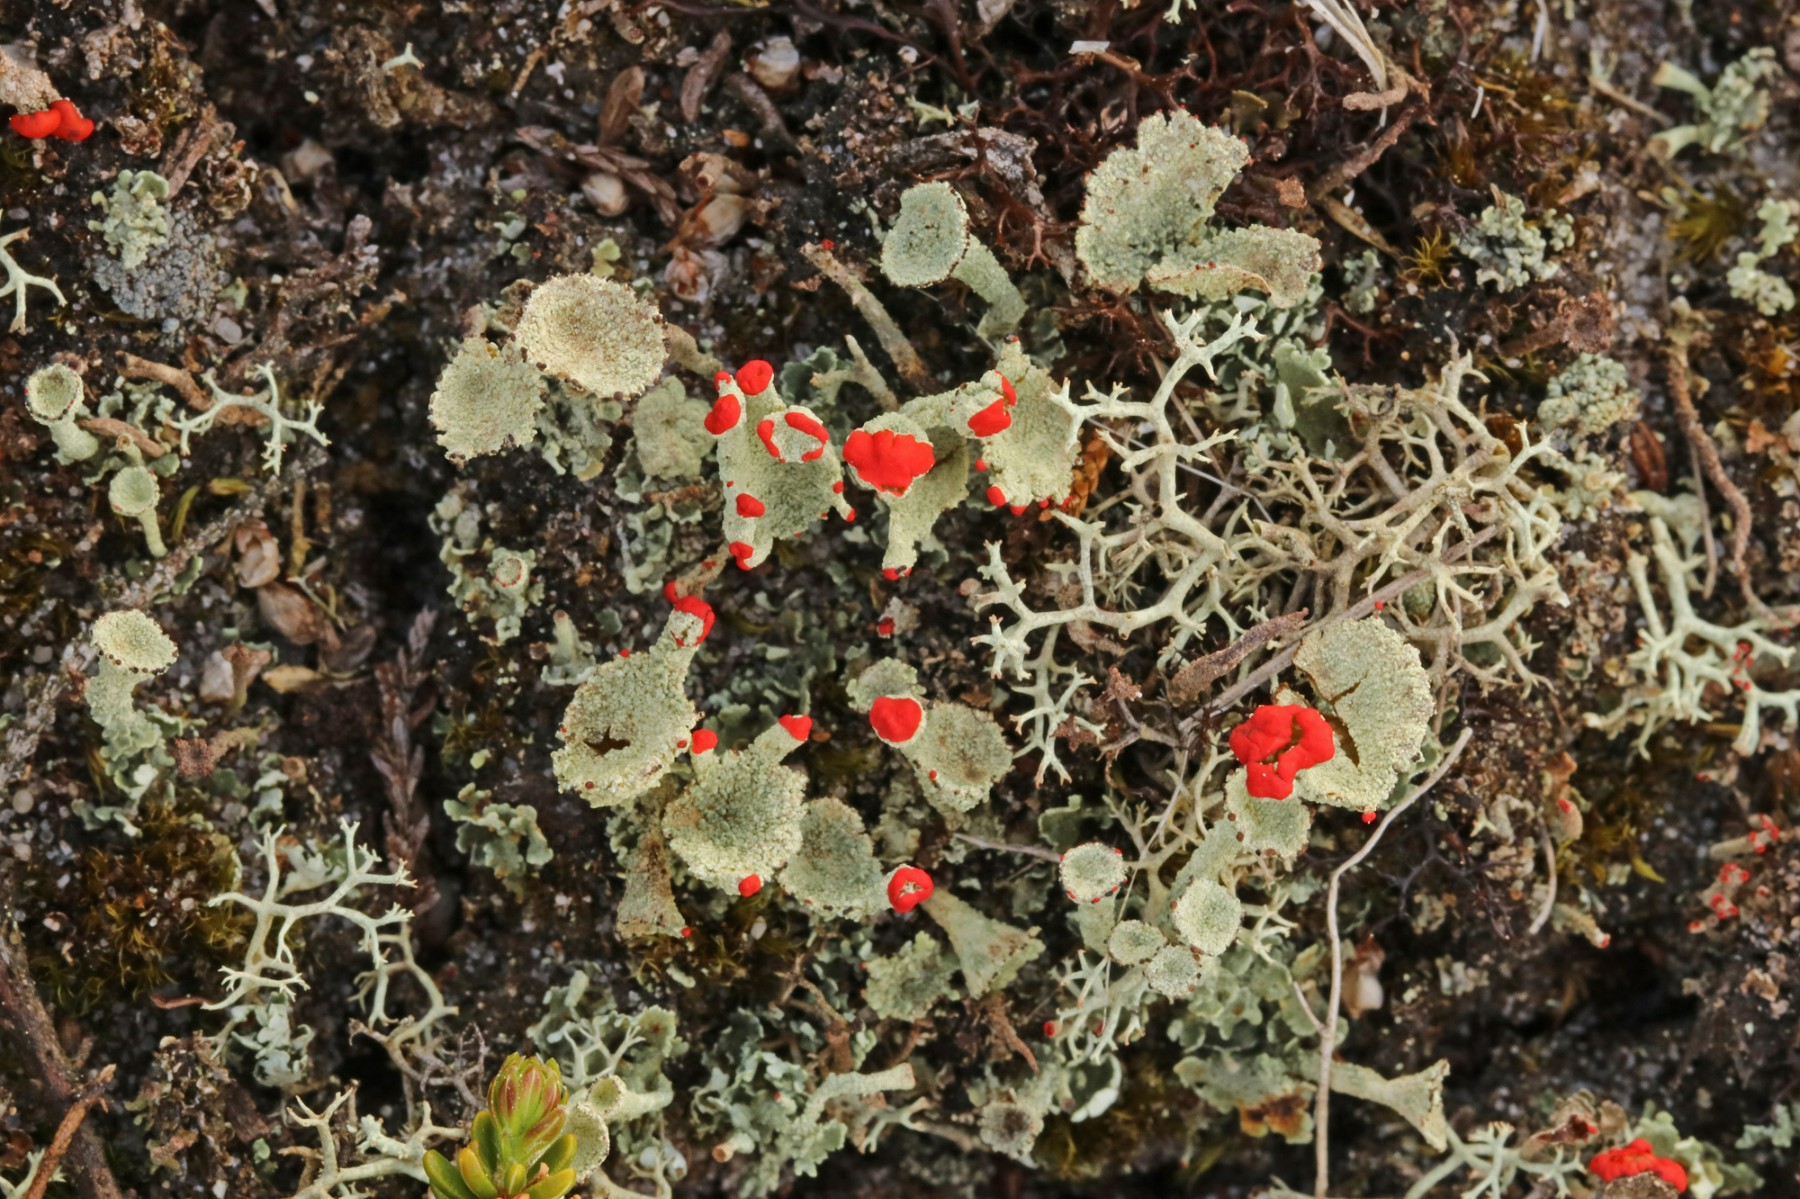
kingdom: Fungi
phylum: Ascomycota
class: Lecanoromycetes
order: Lecanorales
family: Cladoniaceae
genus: Cladonia
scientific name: Cladonia diversa
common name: rød bægerlav
